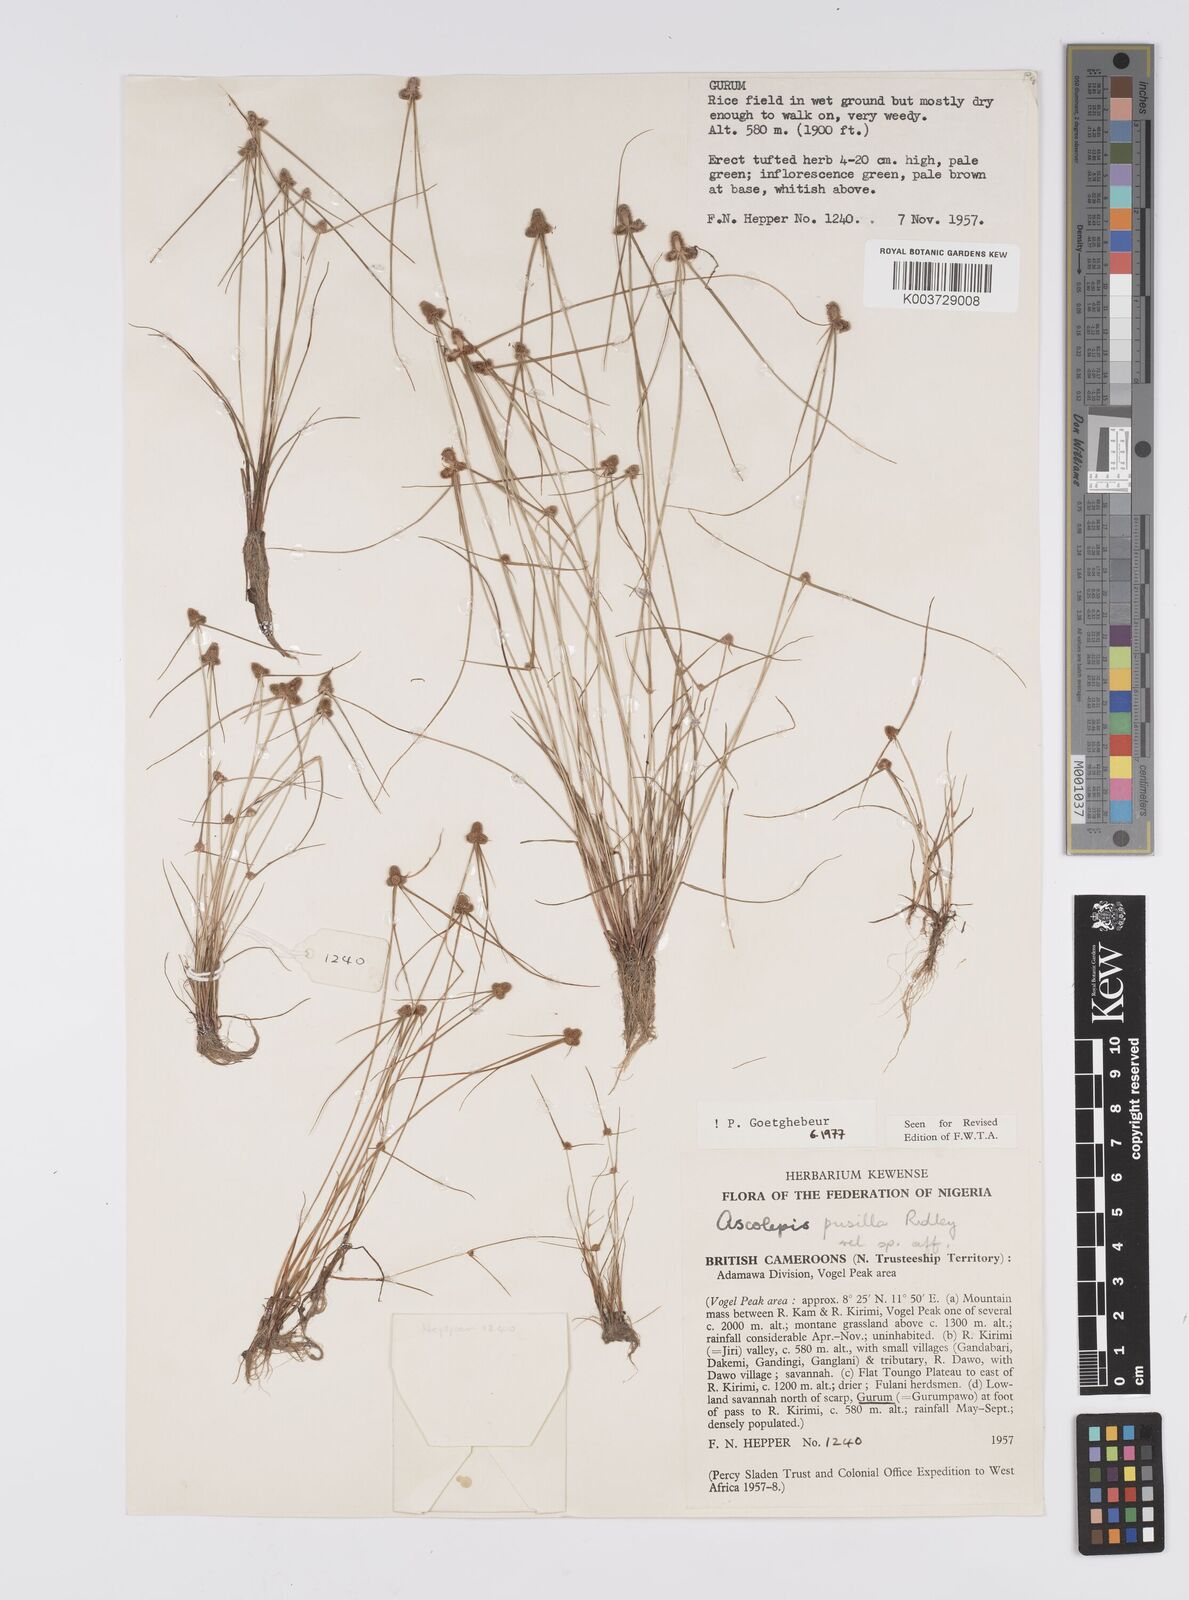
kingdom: Plantae
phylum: Tracheophyta
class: Liliopsida
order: Poales
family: Cyperaceae
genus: Ascolepis
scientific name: Ascolepis
